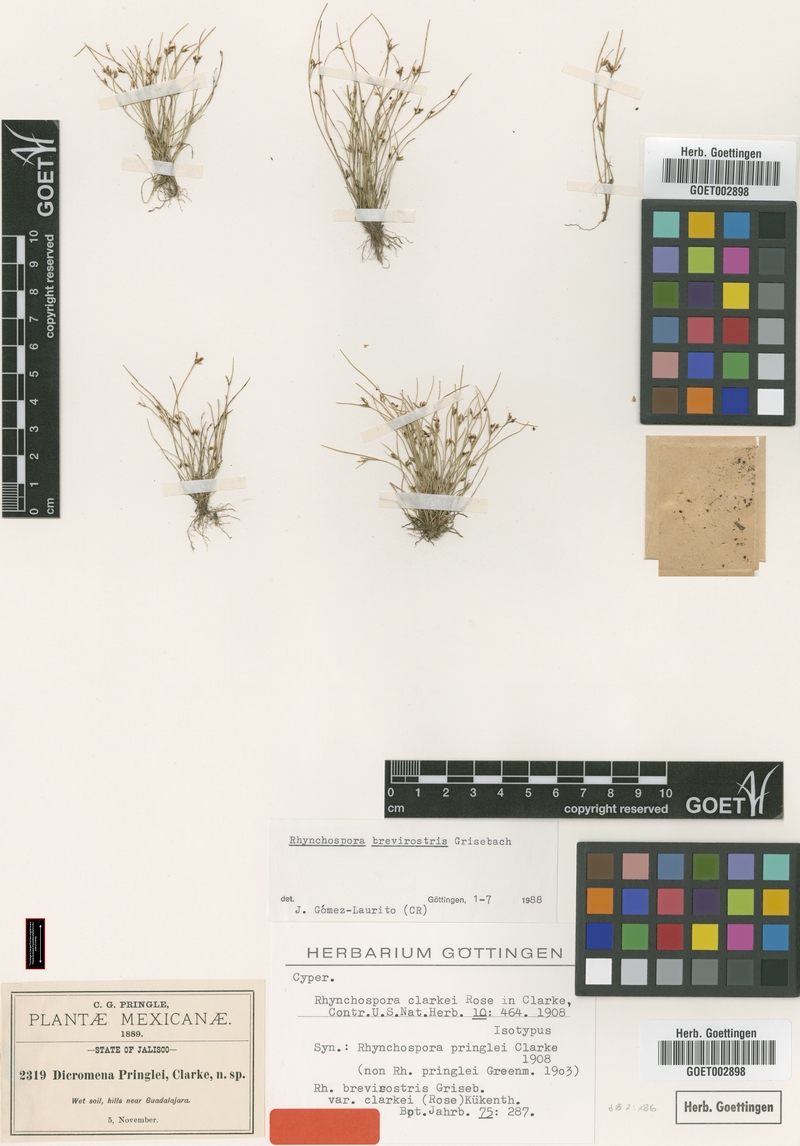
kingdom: Plantae
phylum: Tracheophyta
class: Liliopsida
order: Poales
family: Cyperaceae
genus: Rhynchospora
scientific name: Rhynchospora brevirostris
